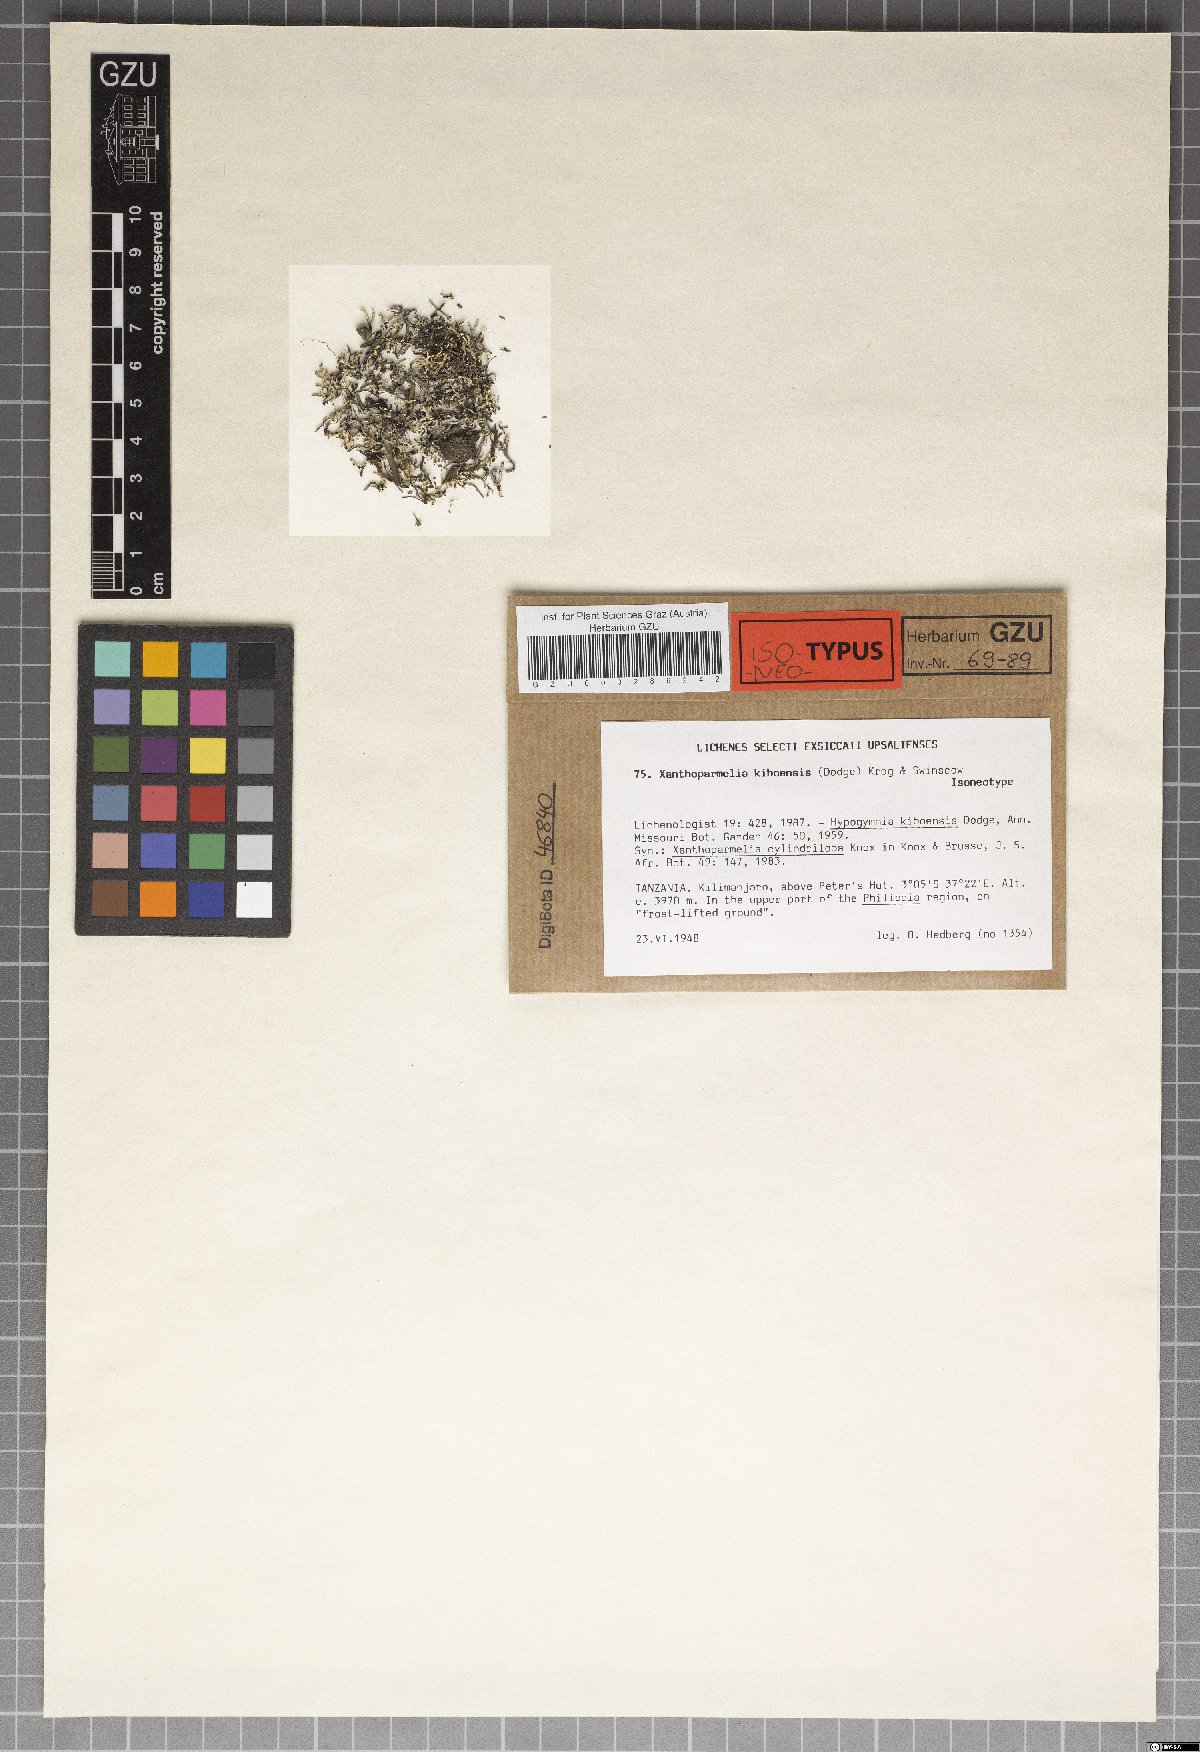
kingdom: Fungi
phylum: Ascomycota
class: Lecanoromycetes
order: Lecanorales
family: Parmeliaceae
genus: Hypogymnia
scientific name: Hypogymnia
